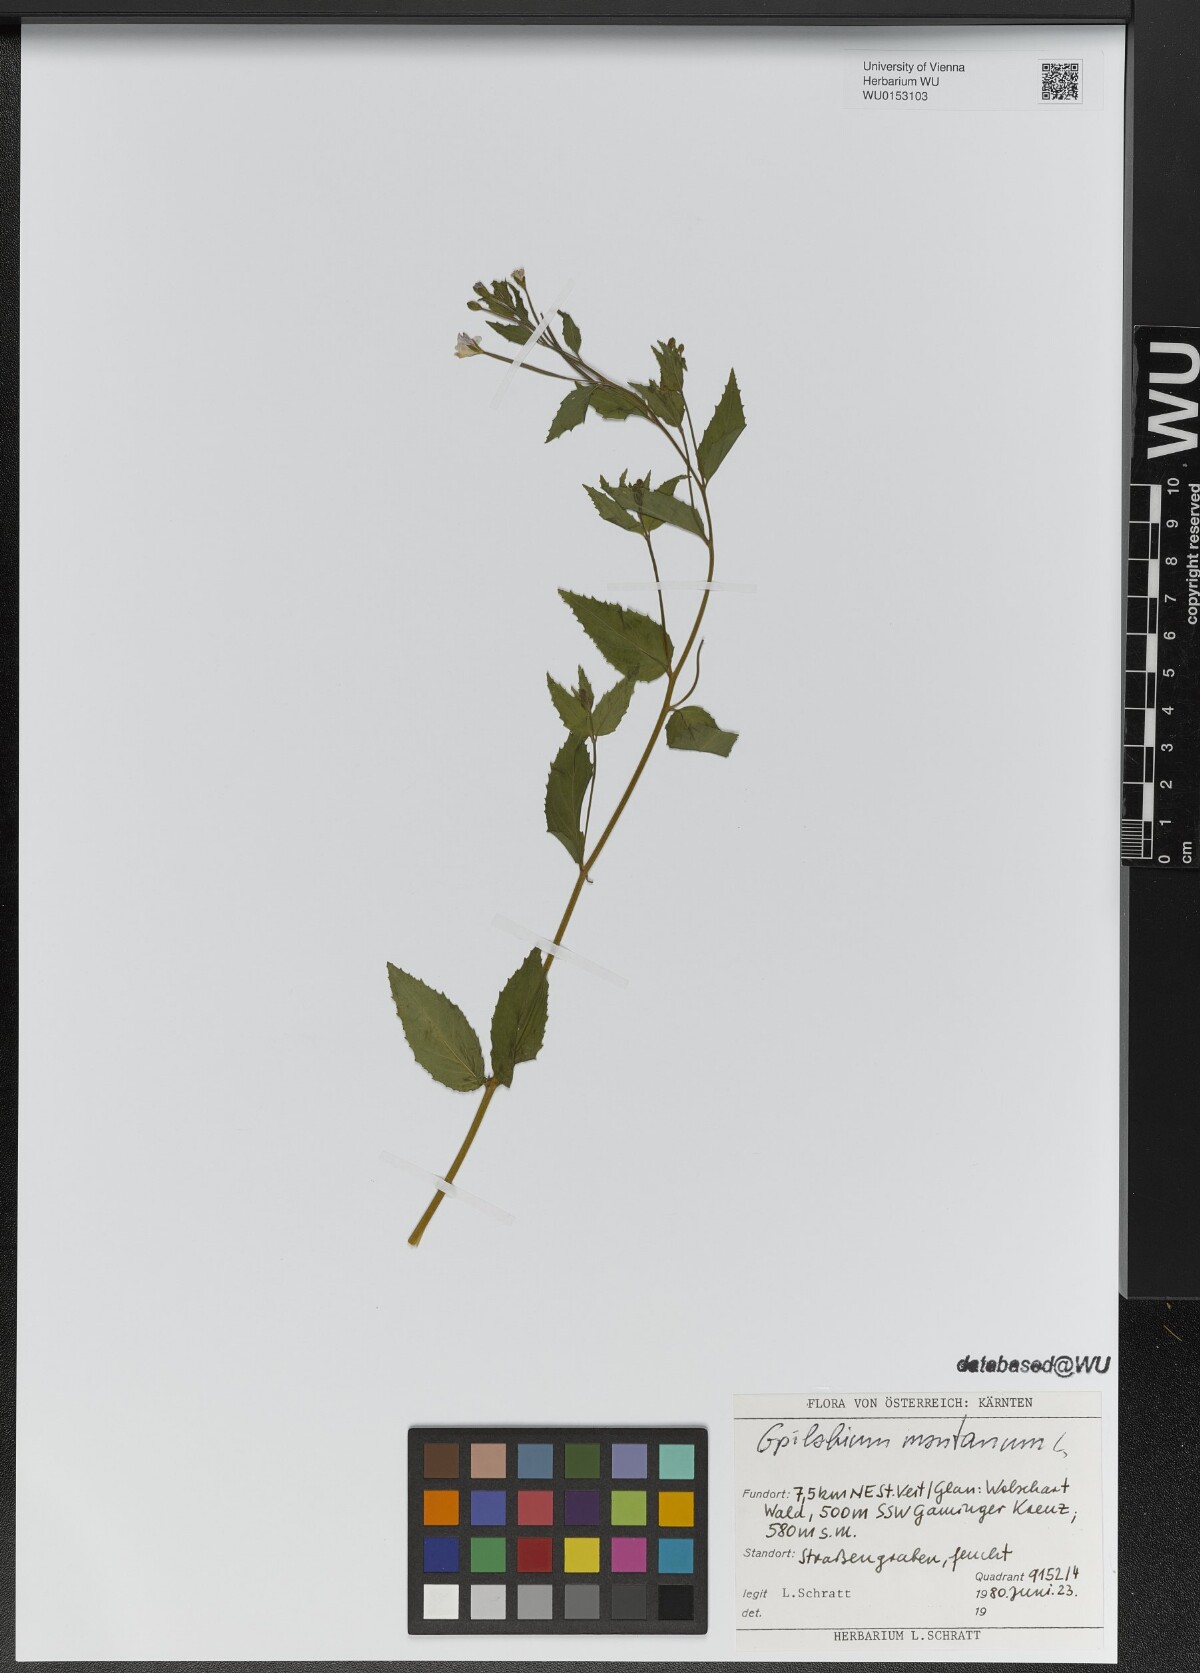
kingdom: Plantae
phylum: Tracheophyta
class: Magnoliopsida
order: Myrtales
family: Onagraceae
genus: Epilobium
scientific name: Epilobium montanum
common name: Broad-leaved willowherb
